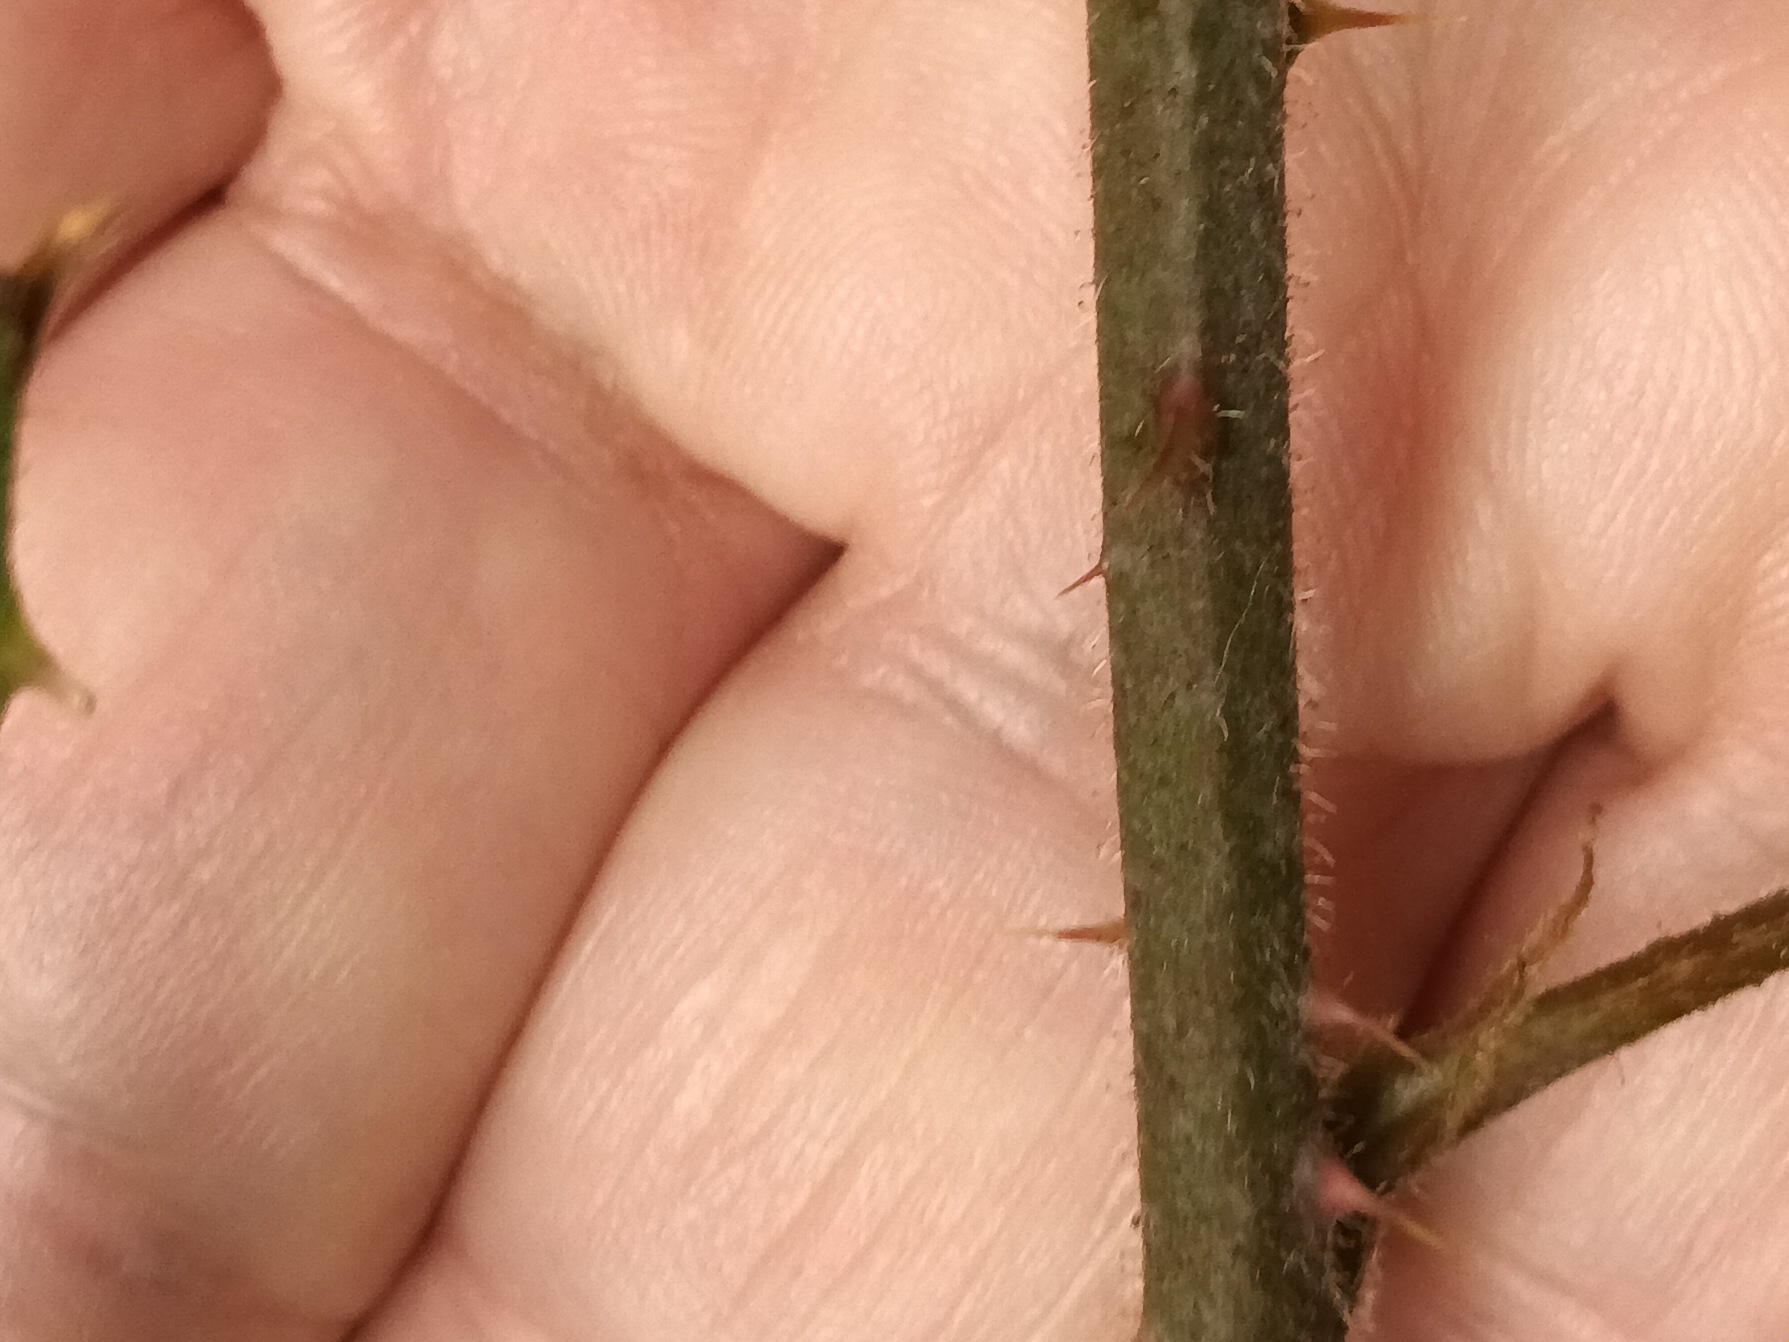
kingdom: Plantae
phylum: Tracheophyta
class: Magnoliopsida
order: Rosales
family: Rosaceae
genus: Rubus
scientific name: Rubus radula
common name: Rasperu brombær
